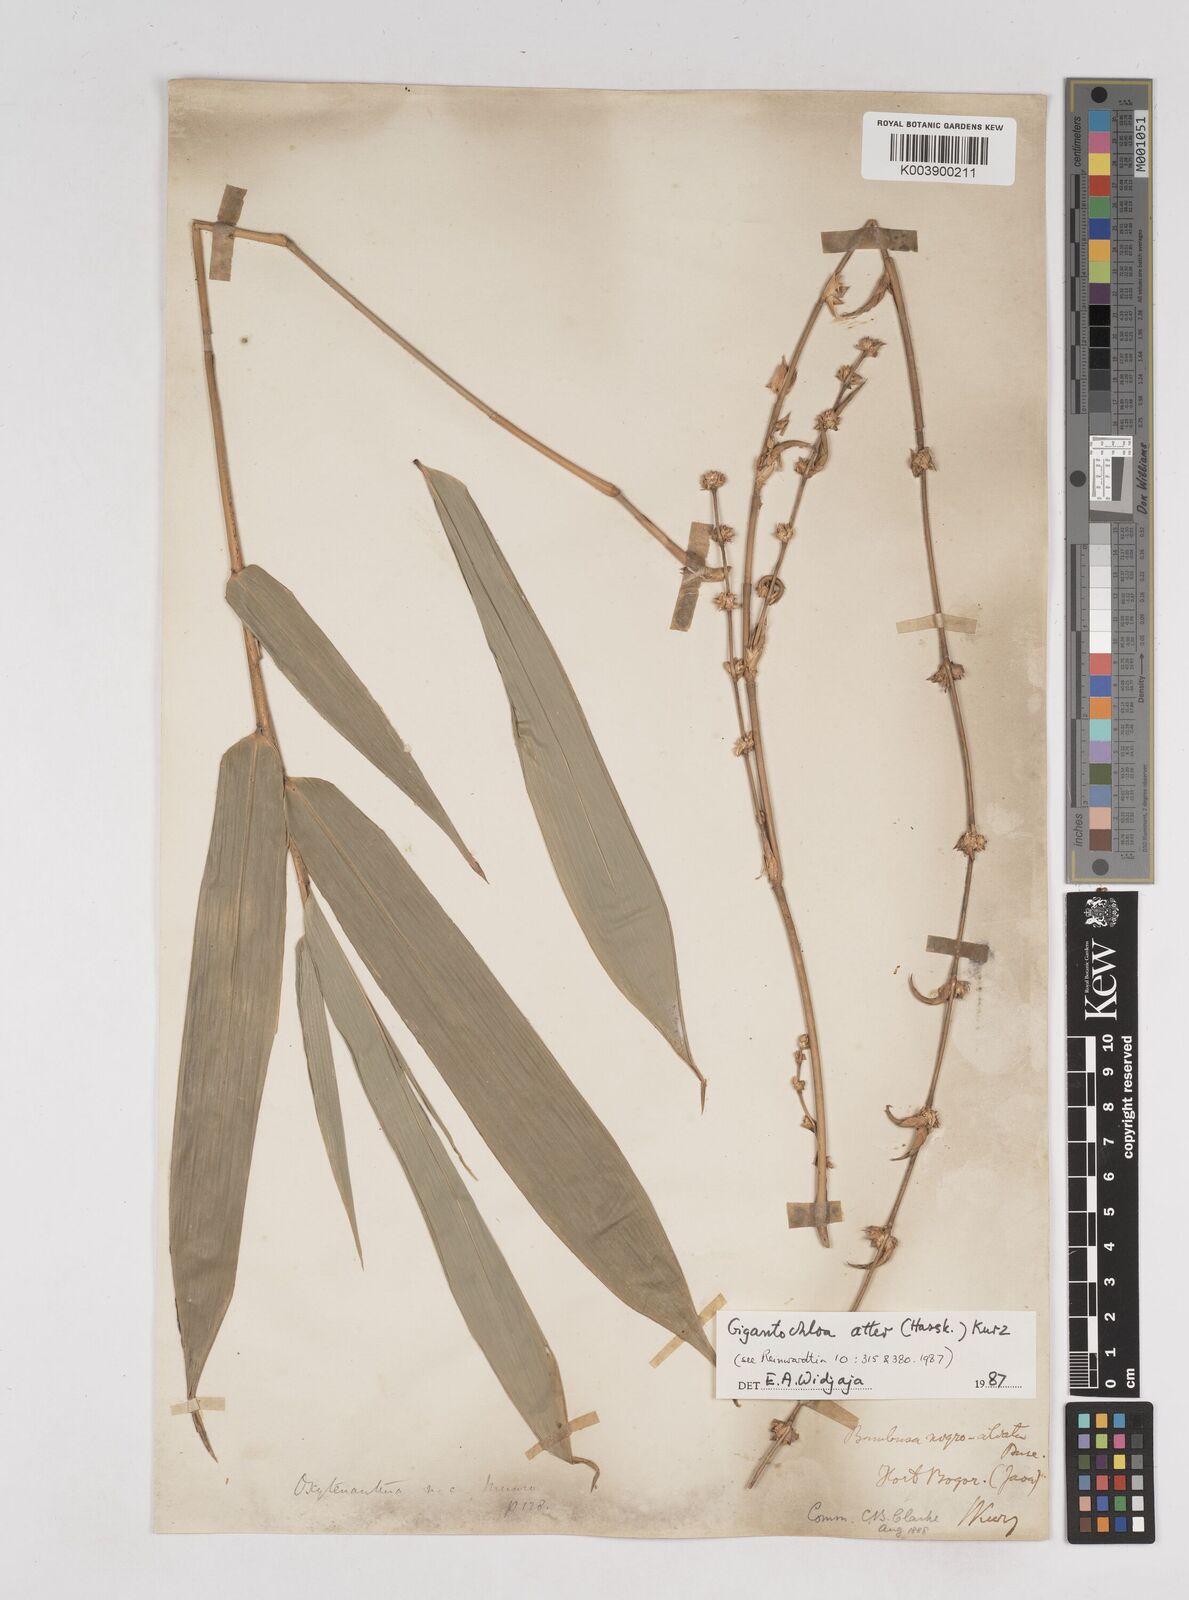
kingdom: Plantae
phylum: Tracheophyta
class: Liliopsida
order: Poales
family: Poaceae
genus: Gigantochloa
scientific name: Gigantochloa atter
